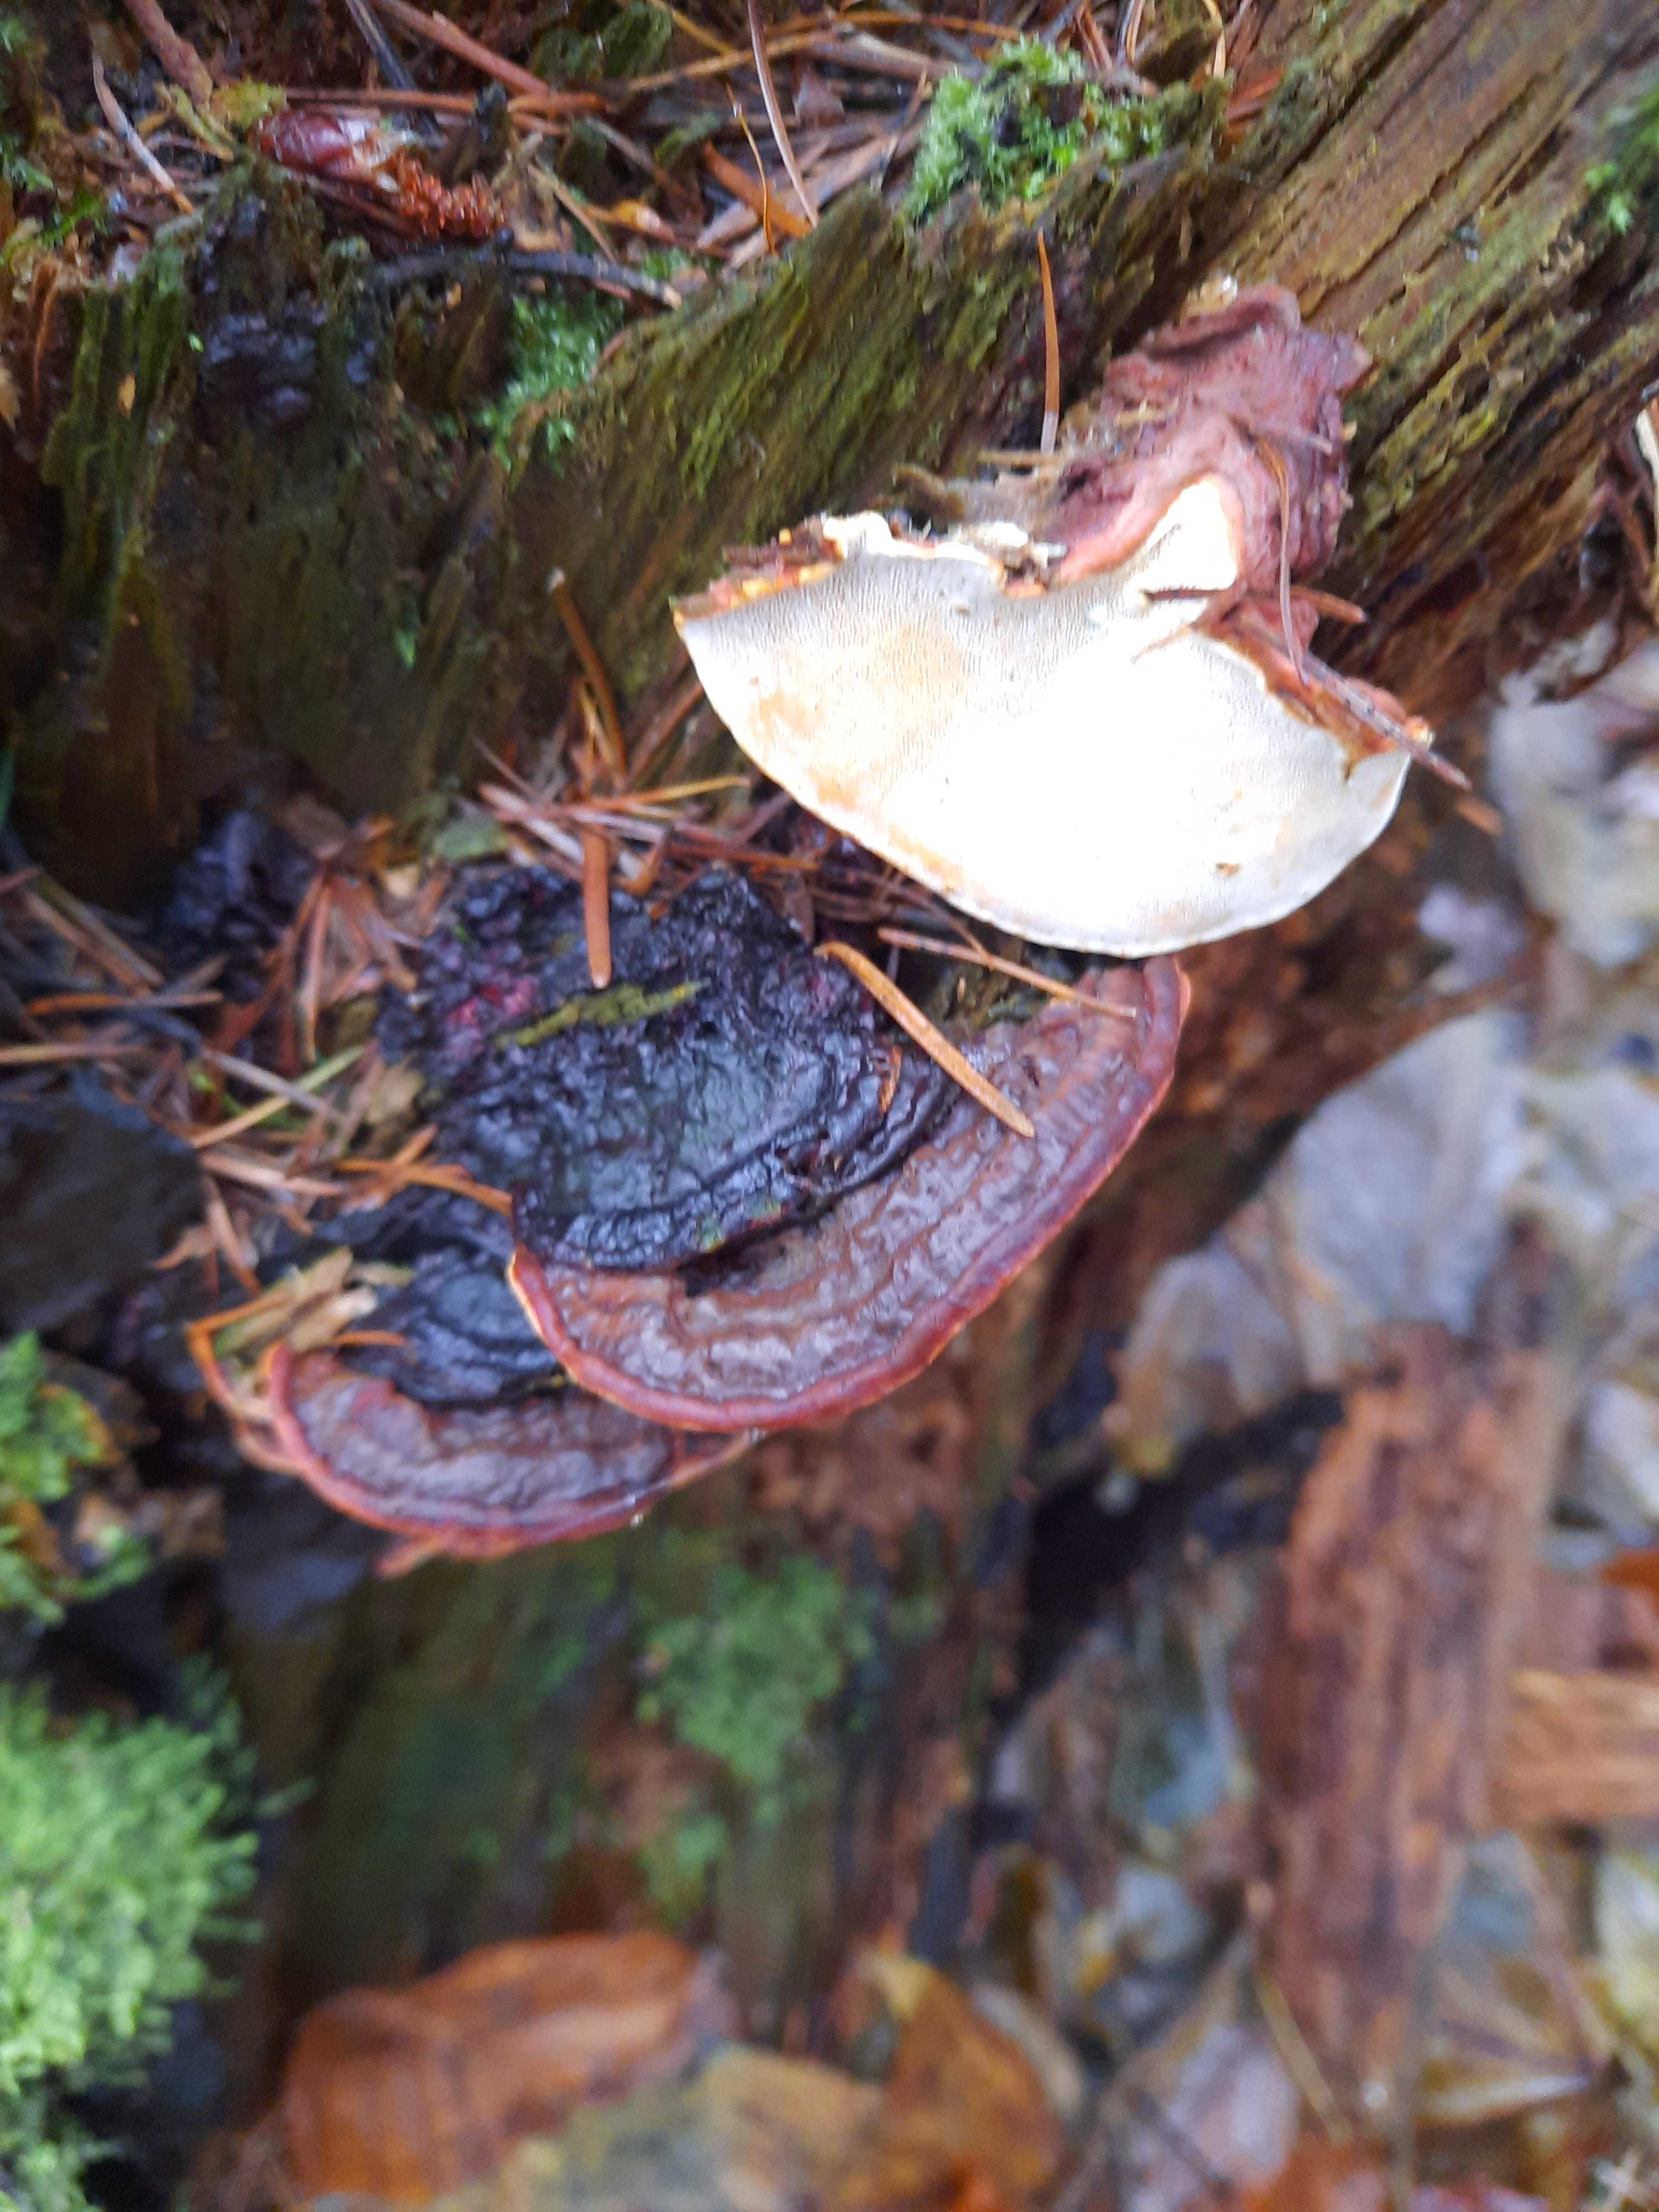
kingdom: Fungi
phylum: Basidiomycota
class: Agaricomycetes
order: Russulales
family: Bondarzewiaceae
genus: Heterobasidion
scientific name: Heterobasidion annosum
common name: almindelig rodfordærver
